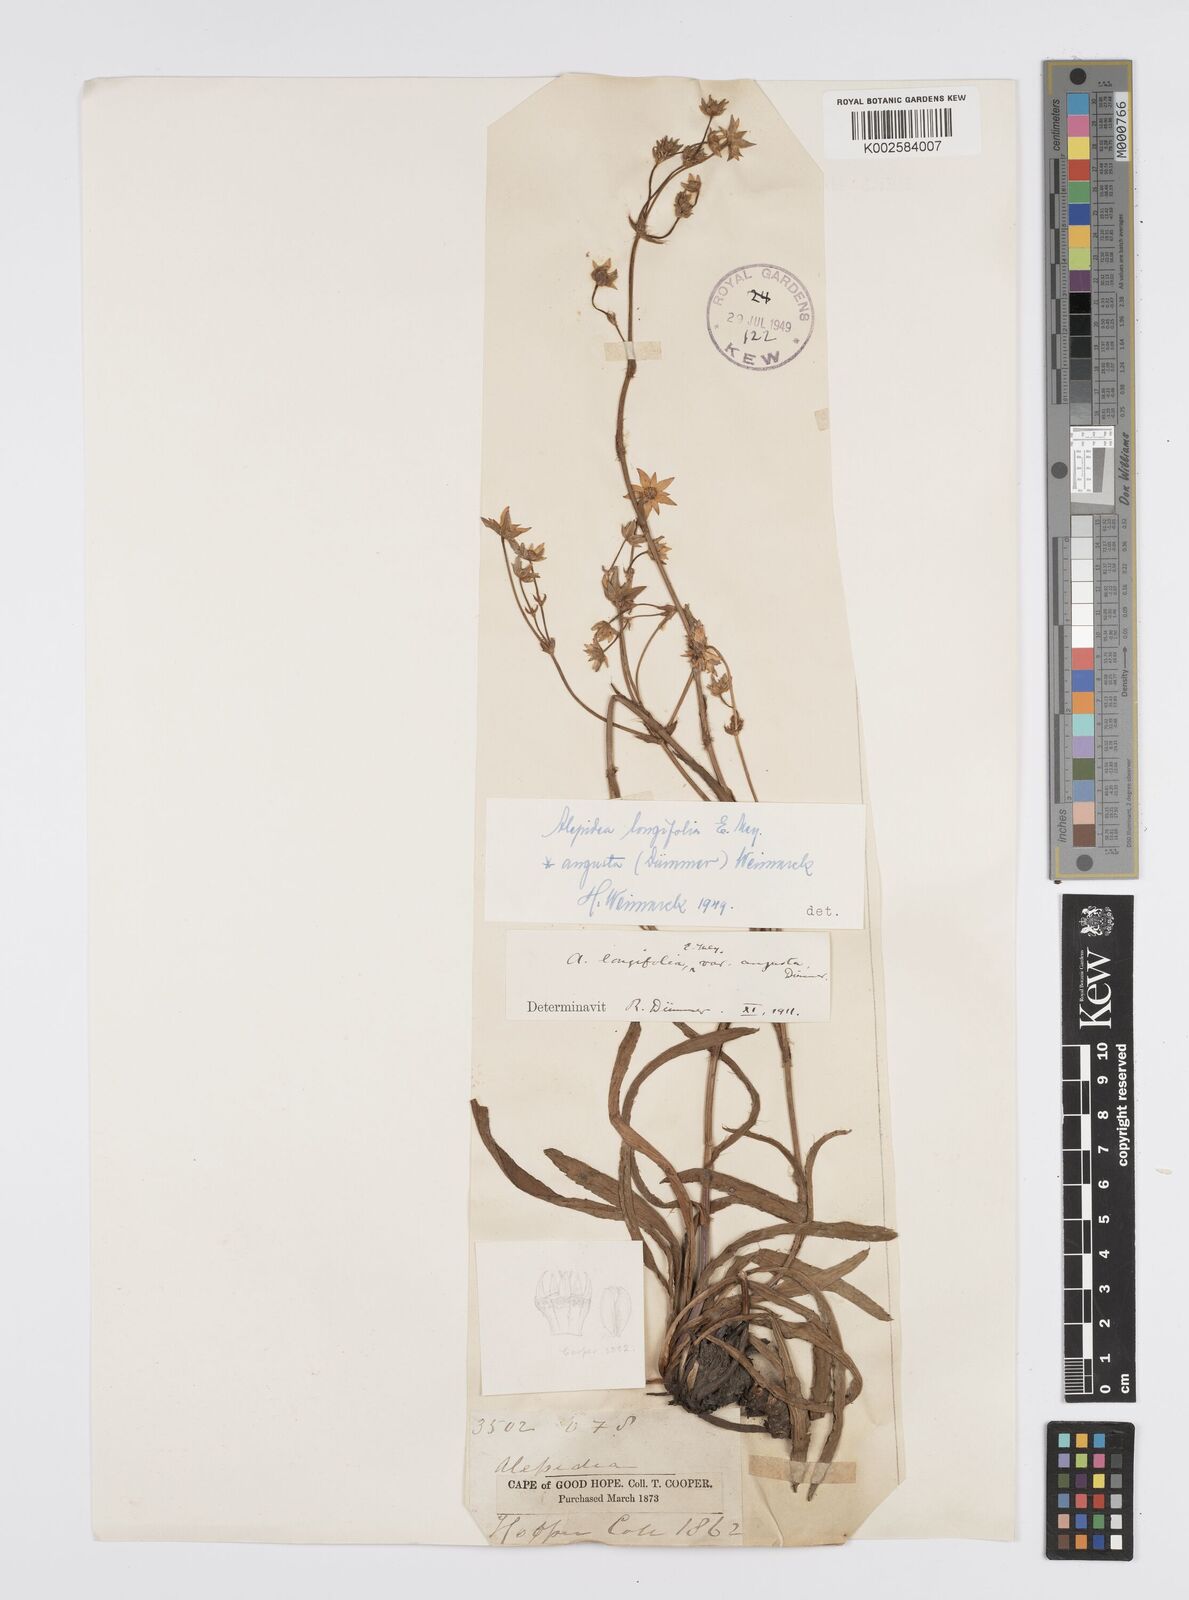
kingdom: Plantae
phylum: Tracheophyta
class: Magnoliopsida
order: Apiales
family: Apiaceae
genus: Alepidea
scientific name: Alepidea
